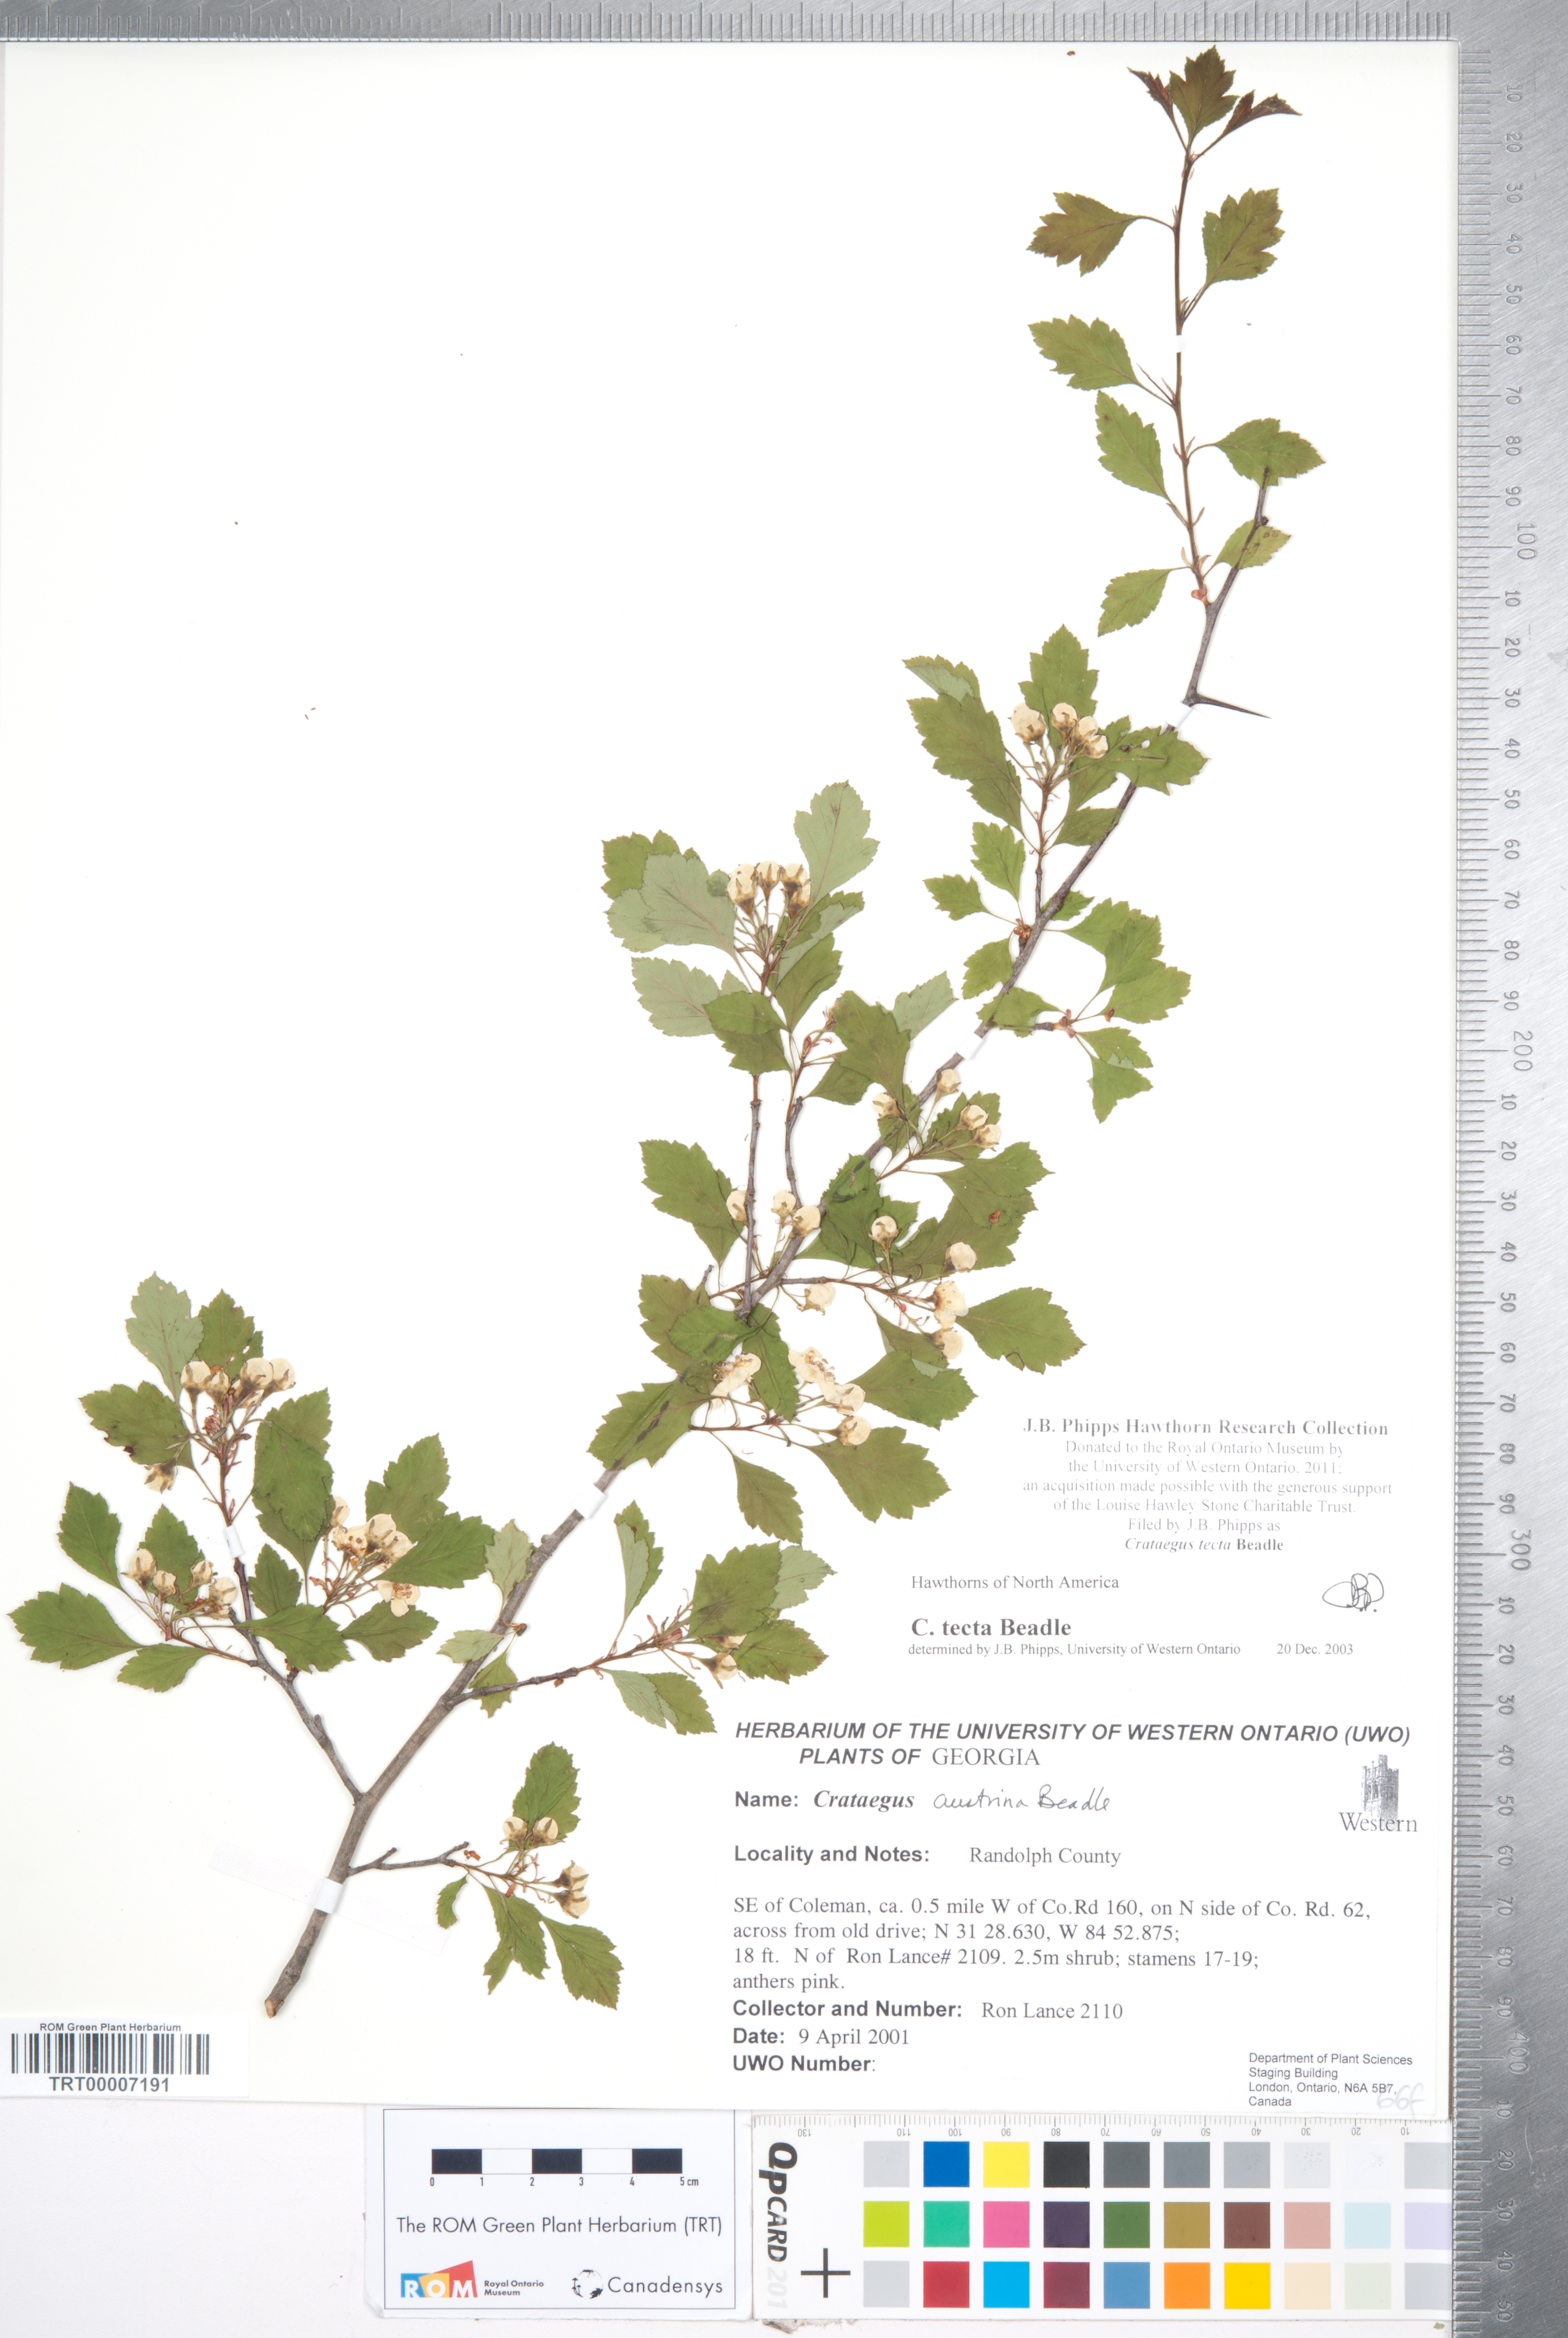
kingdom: Plantae
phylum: Tracheophyta
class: Magnoliopsida
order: Rosales
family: Rosaceae
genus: Crataegus
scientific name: Crataegus pulcherrima
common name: Beautiful hawthorn
